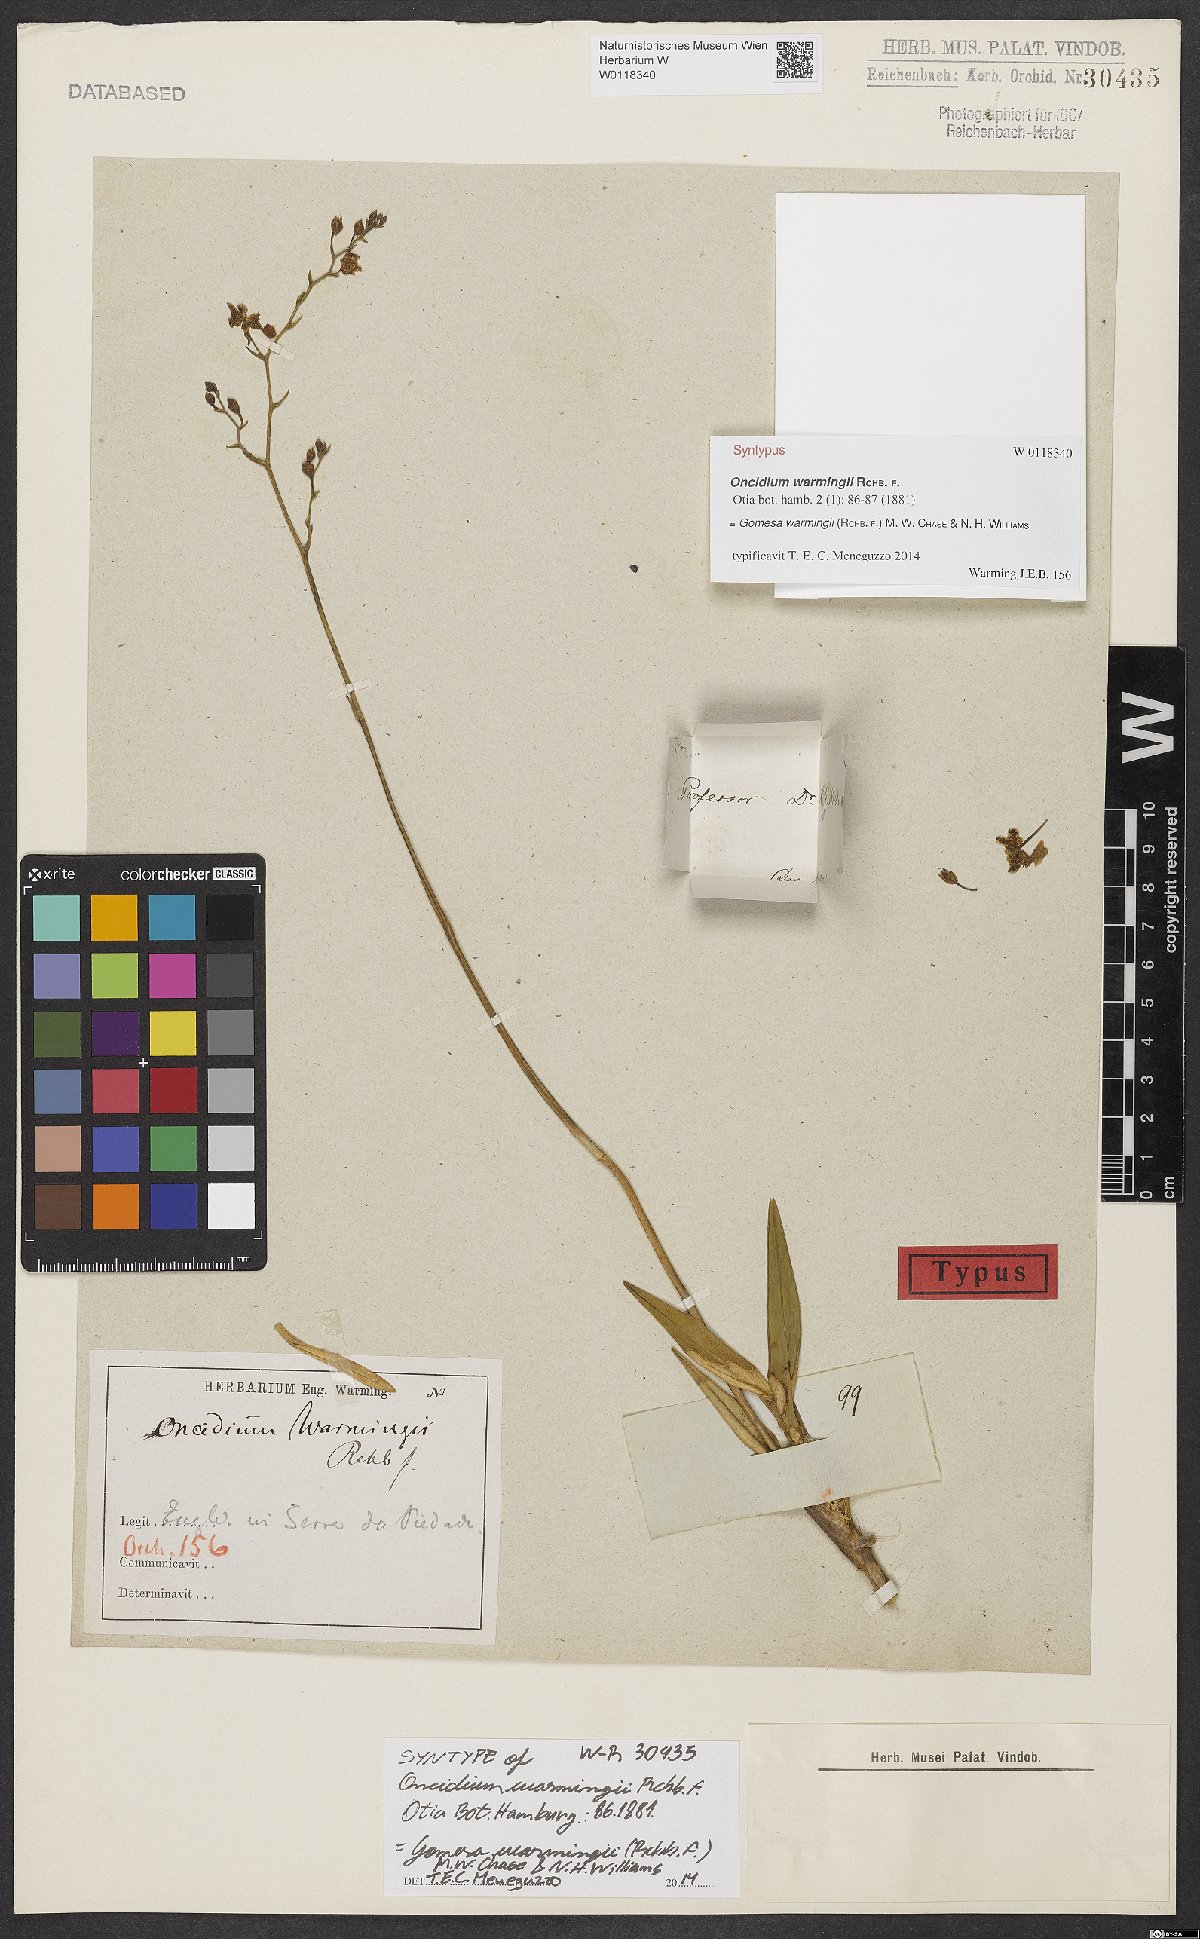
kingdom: Plantae
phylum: Tracheophyta
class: Liliopsida
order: Asparagales
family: Orchidaceae
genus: Gomesa
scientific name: Gomesa warmingii
